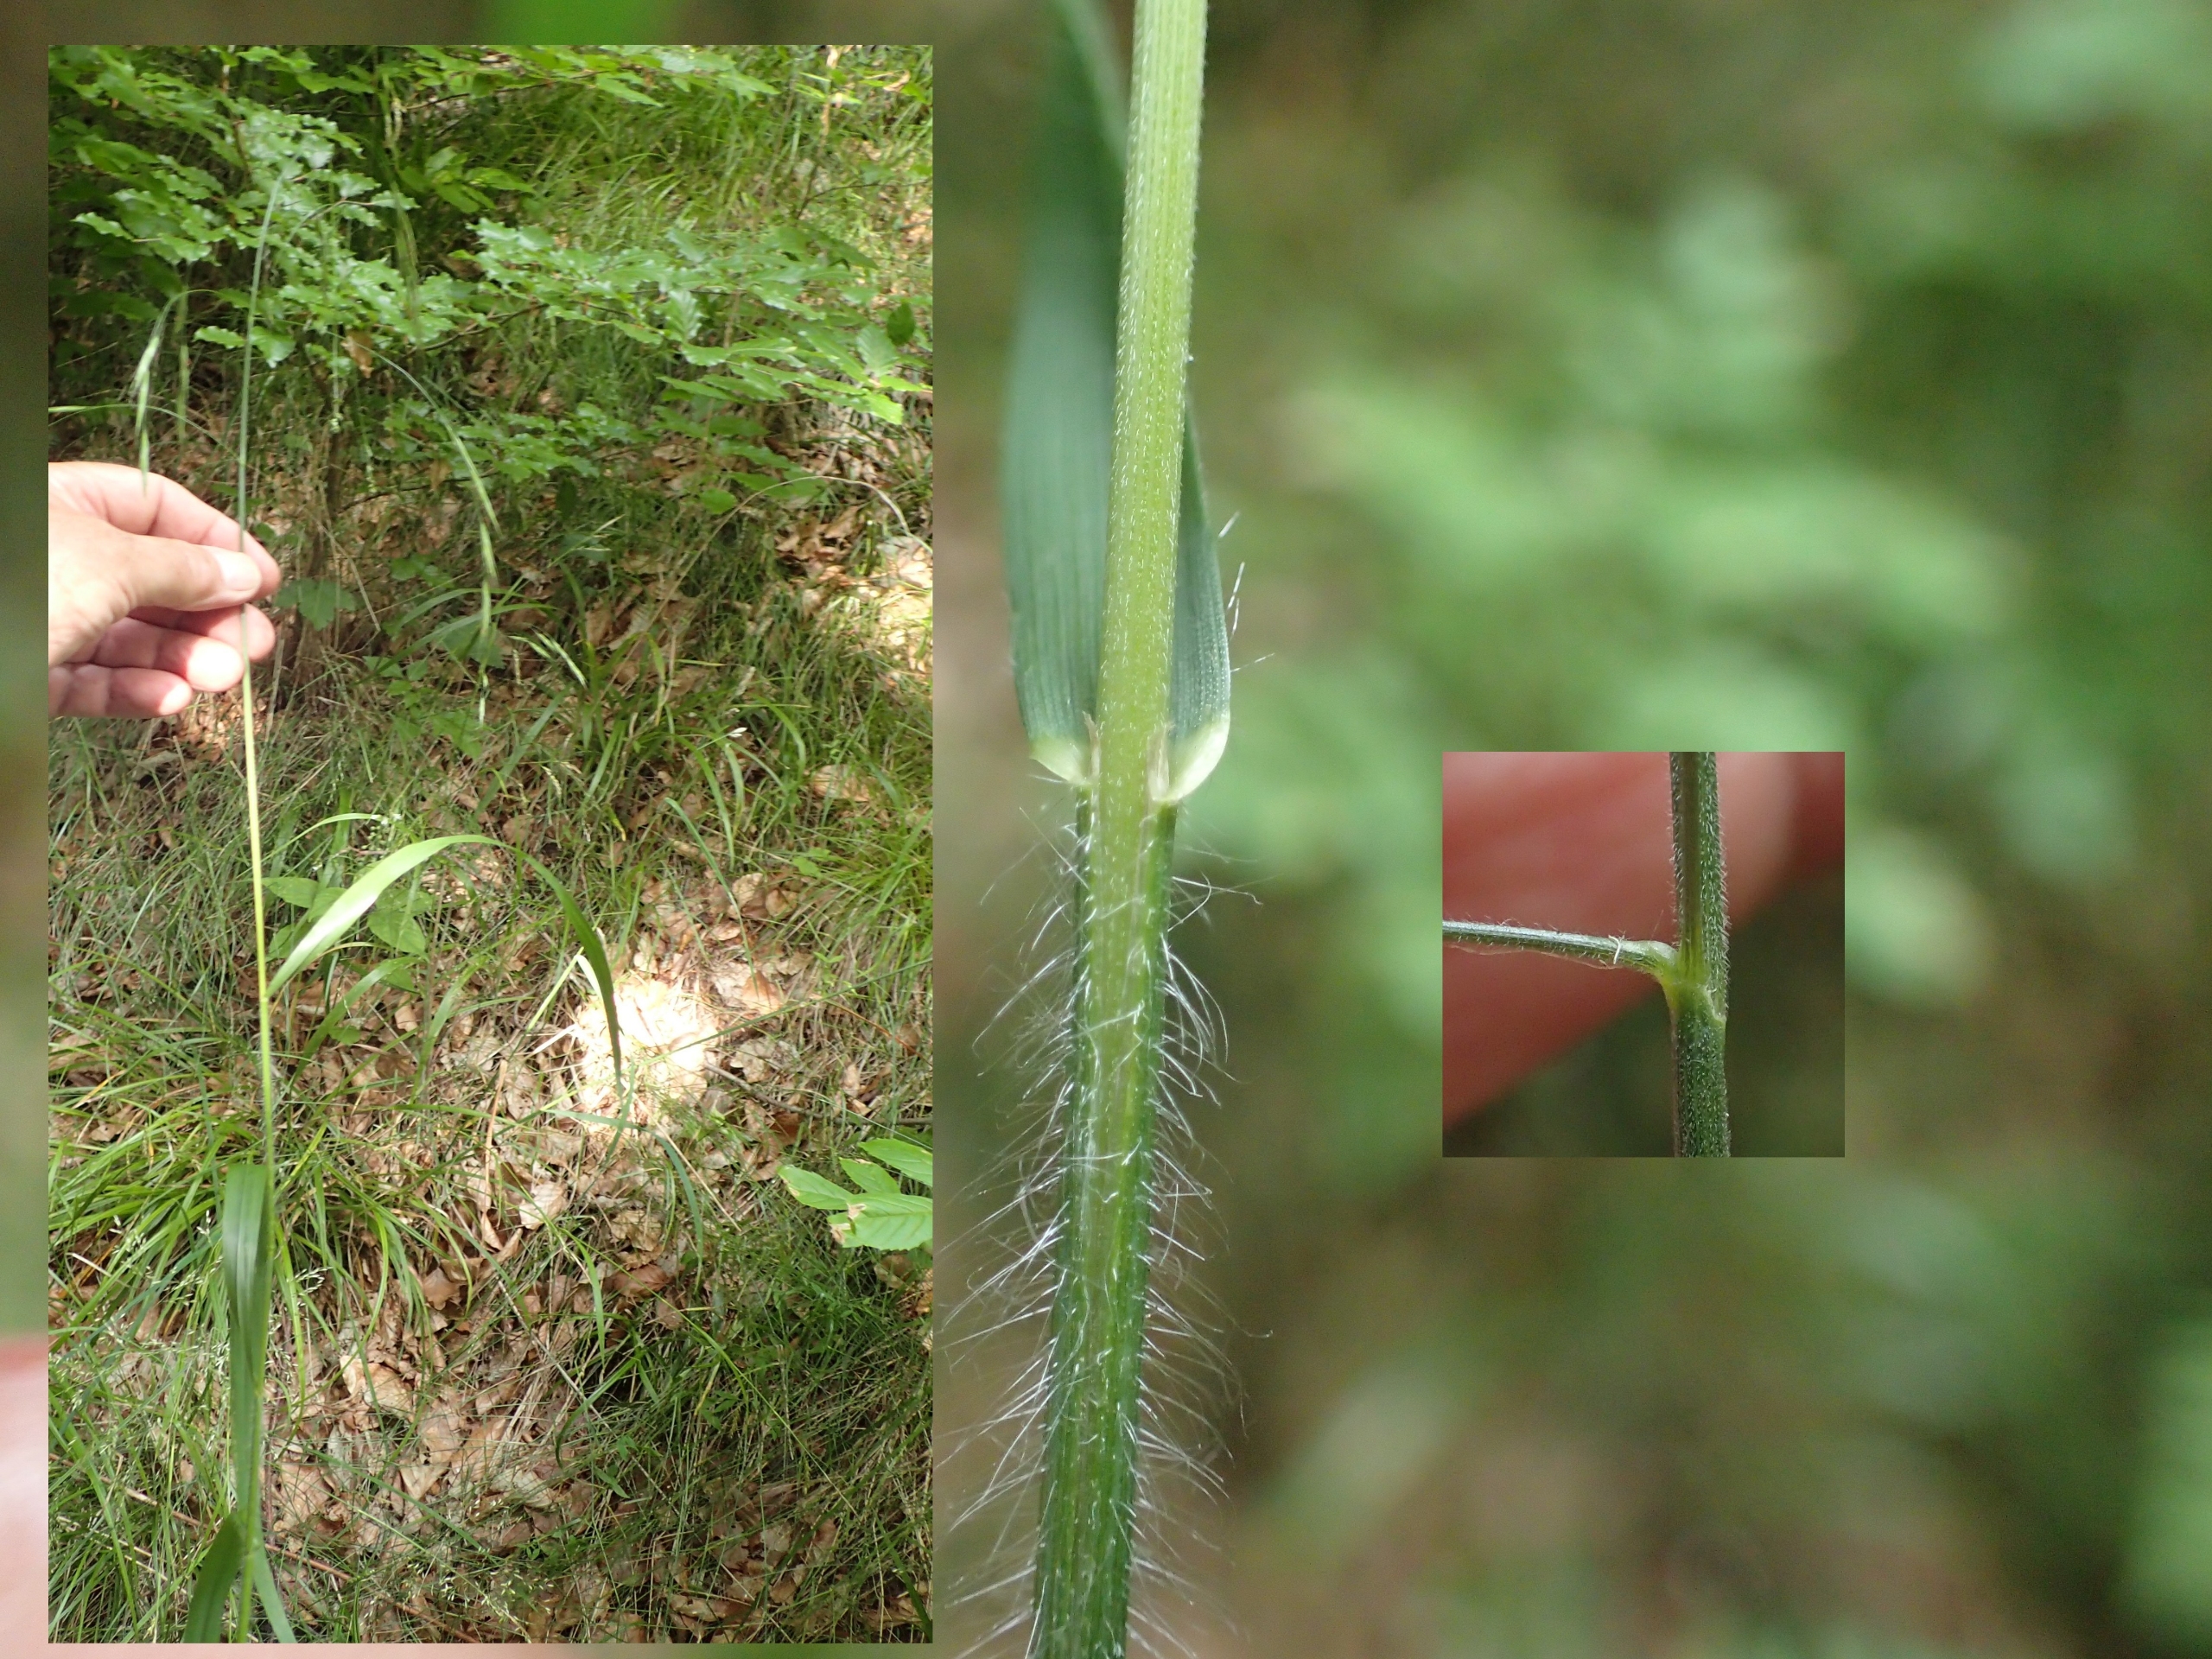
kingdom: Plantae
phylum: Tracheophyta
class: Liliopsida
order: Poales
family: Poaceae
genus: Bromus
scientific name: Bromus ramosus
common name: Sildig skov-hejre
